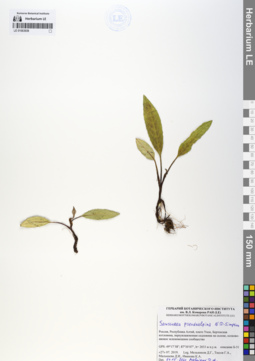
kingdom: Plantae
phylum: Tracheophyta
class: Magnoliopsida
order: Asterales
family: Asteraceae
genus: Saussurea
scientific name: Saussurea pseudoalpina
